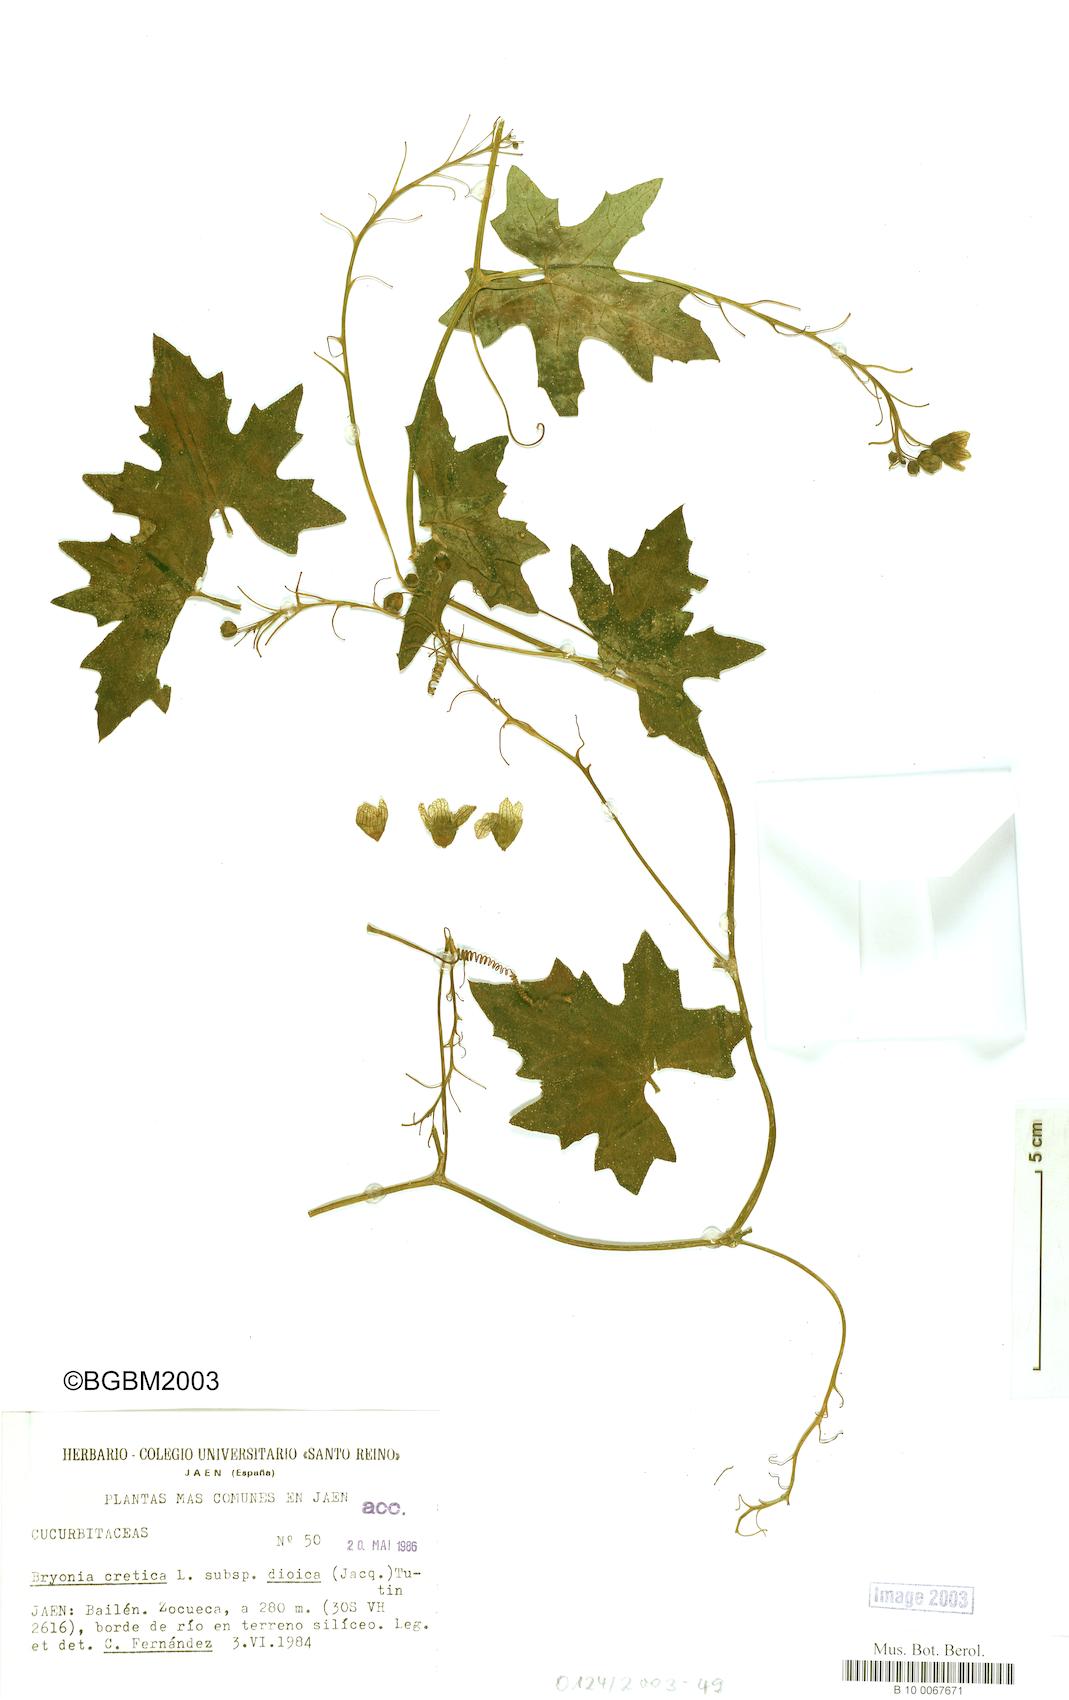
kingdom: Plantae
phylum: Tracheophyta
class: Magnoliopsida
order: Cucurbitales
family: Cucurbitaceae
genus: Bryonia
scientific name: Bryonia dioica
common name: White bryony
